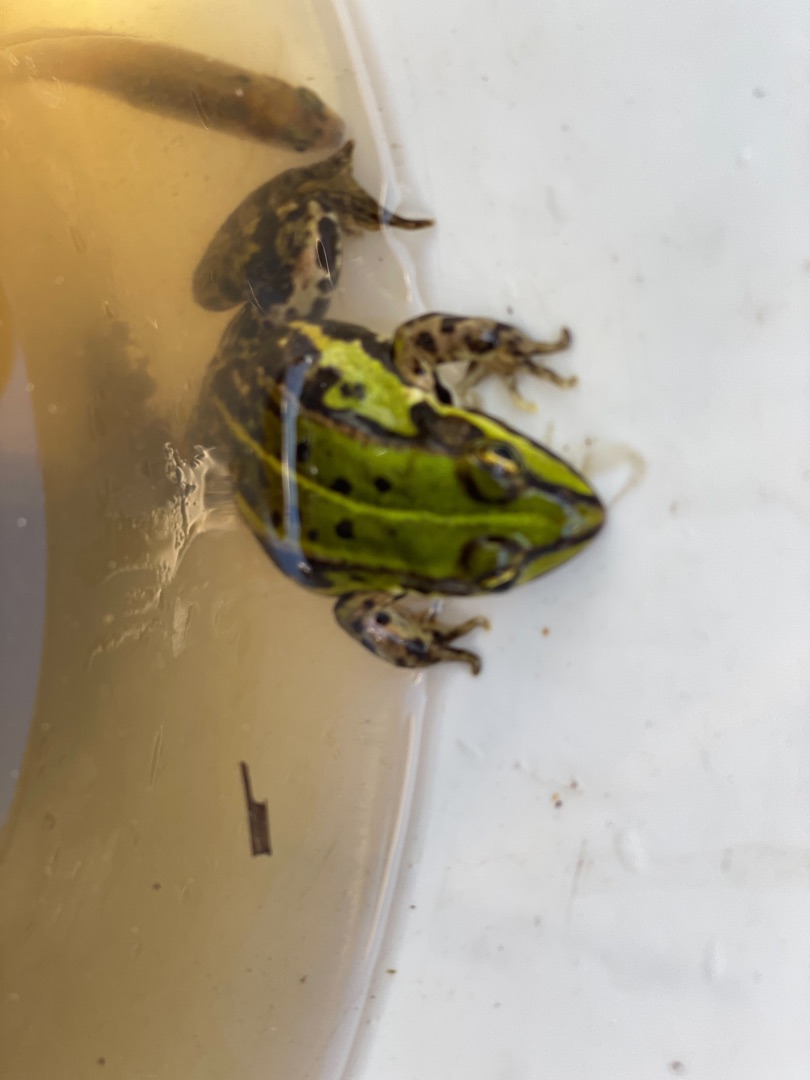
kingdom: Animalia
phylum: Chordata
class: Amphibia
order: Anura
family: Ranidae
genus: Pelophylax
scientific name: Pelophylax lessonae
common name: Grøn frø
